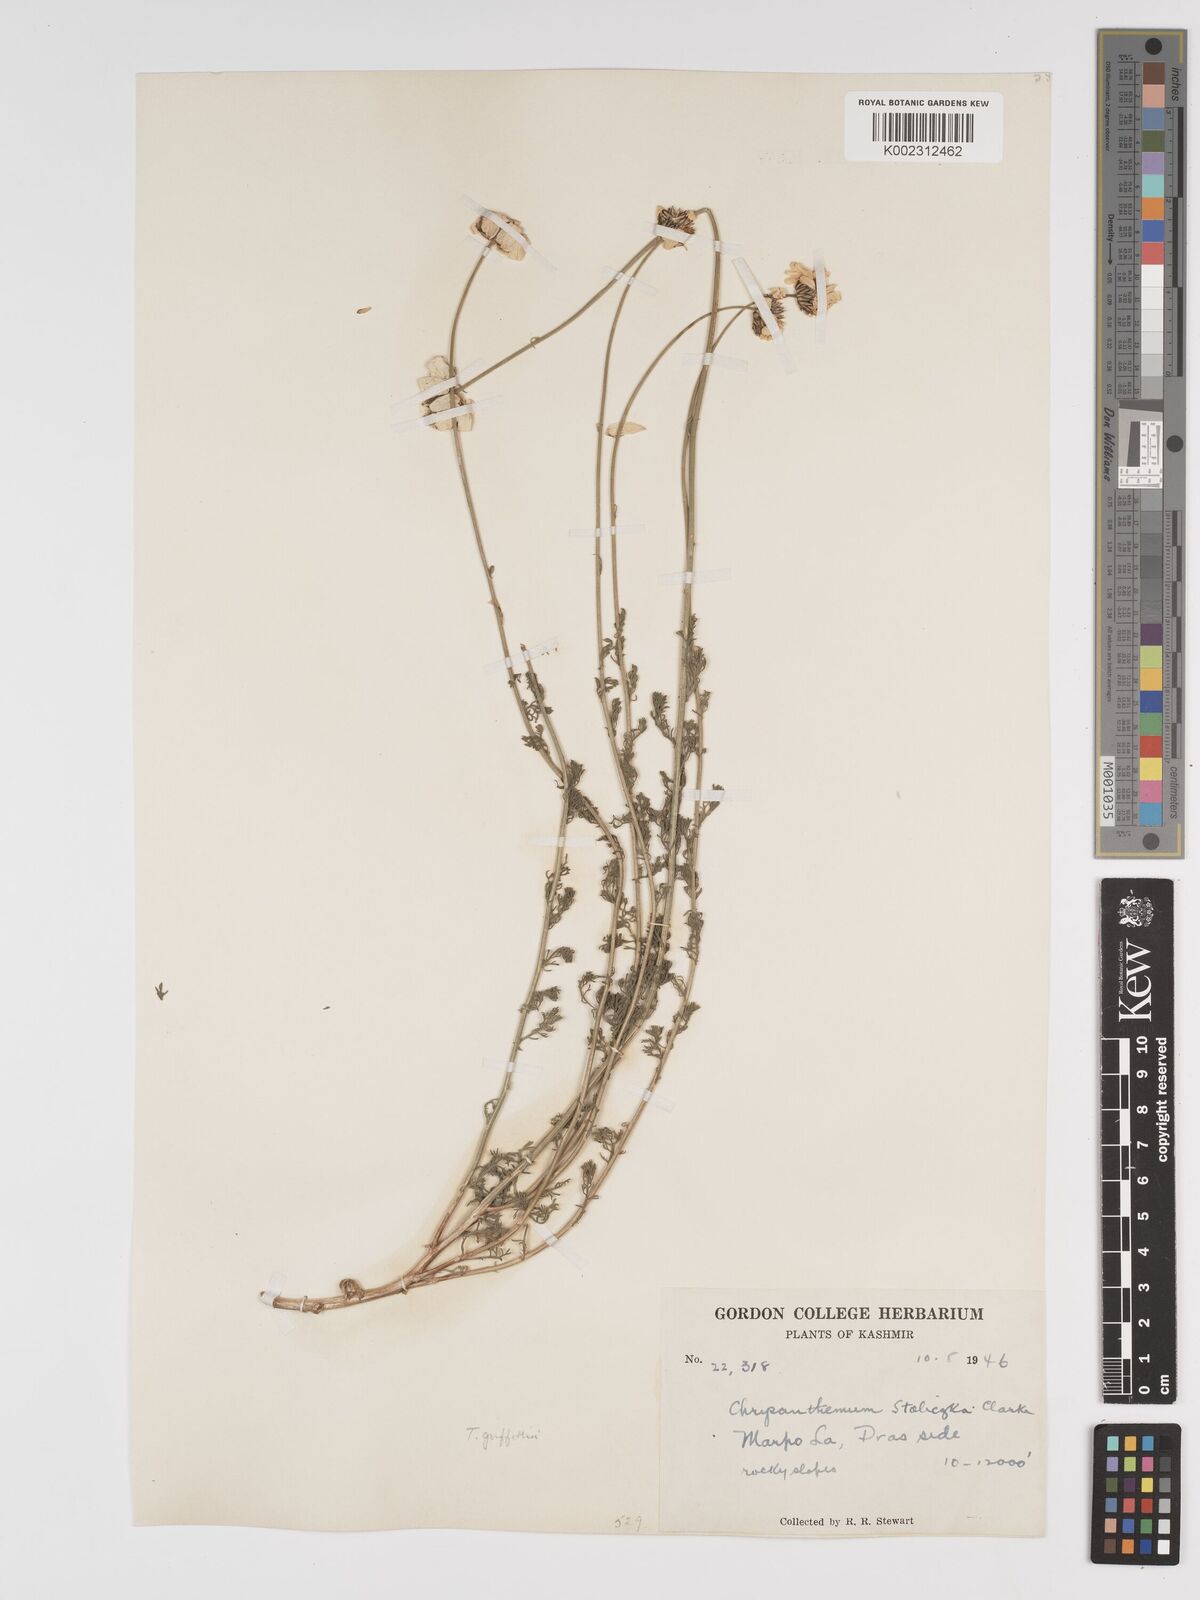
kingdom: Plantae
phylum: Tracheophyta
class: Magnoliopsida
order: Asterales
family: Asteraceae
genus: Tanacetum
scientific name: Tanacetum stoliczkae
